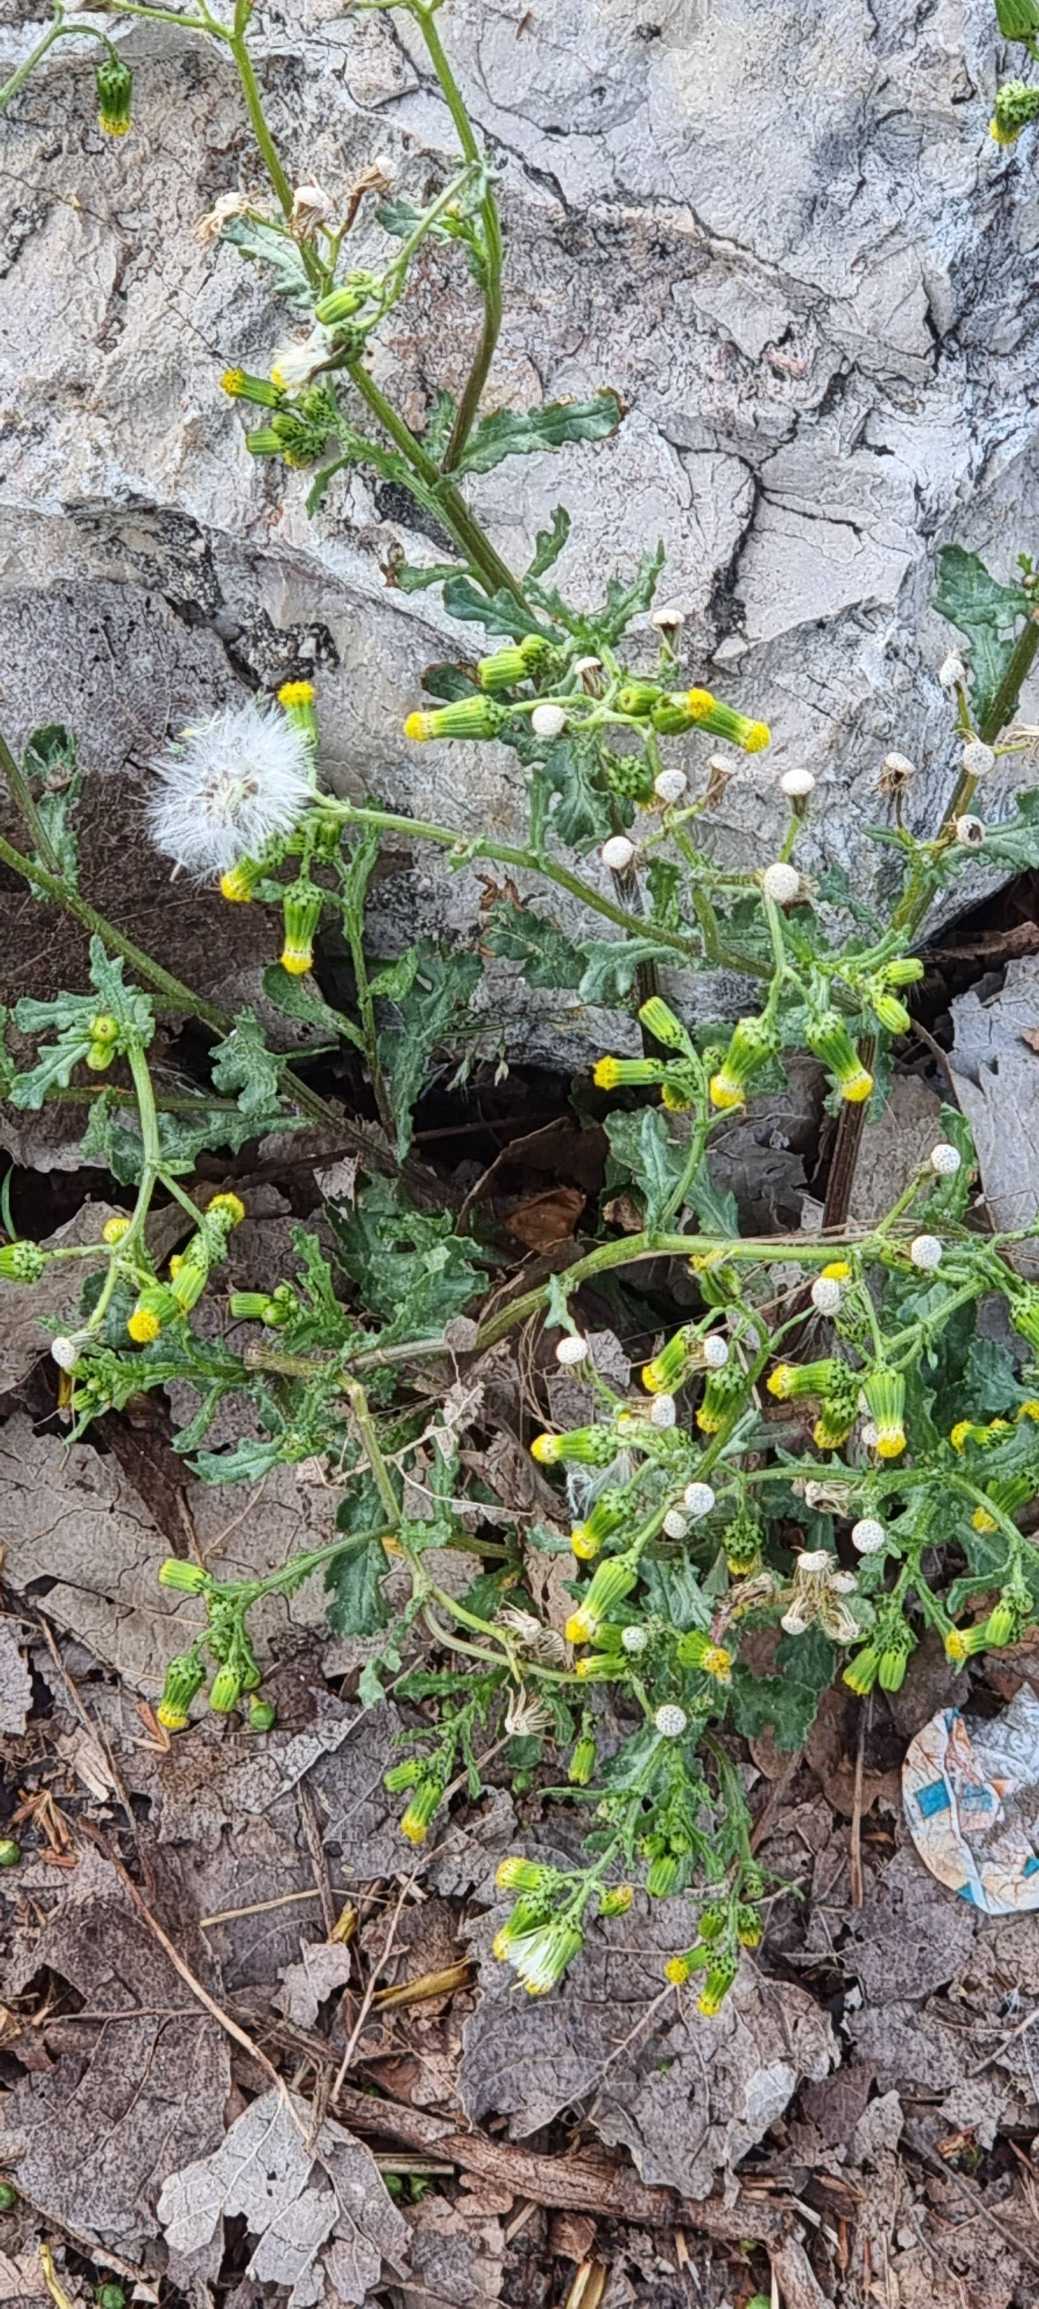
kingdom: Plantae
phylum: Tracheophyta
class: Magnoliopsida
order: Asterales
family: Asteraceae
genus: Senecio
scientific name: Senecio vulgaris
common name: Almindelig brandbæger
